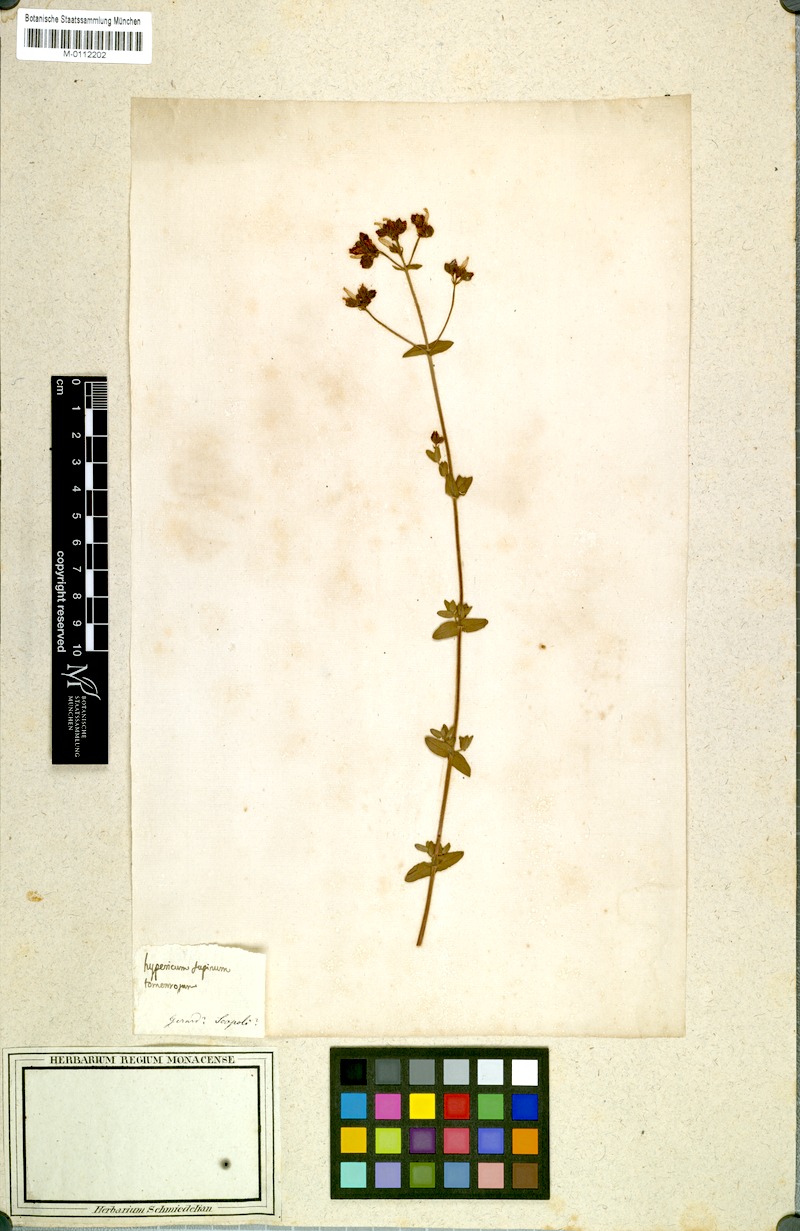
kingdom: Plantae
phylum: Tracheophyta
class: Magnoliopsida
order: Malpighiales
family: Hypericaceae
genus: Hypericum
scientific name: Hypericum tomentosum
